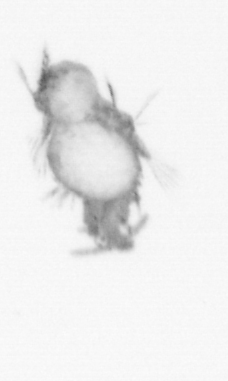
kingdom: Animalia
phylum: Annelida
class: Polychaeta
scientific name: Polychaeta
